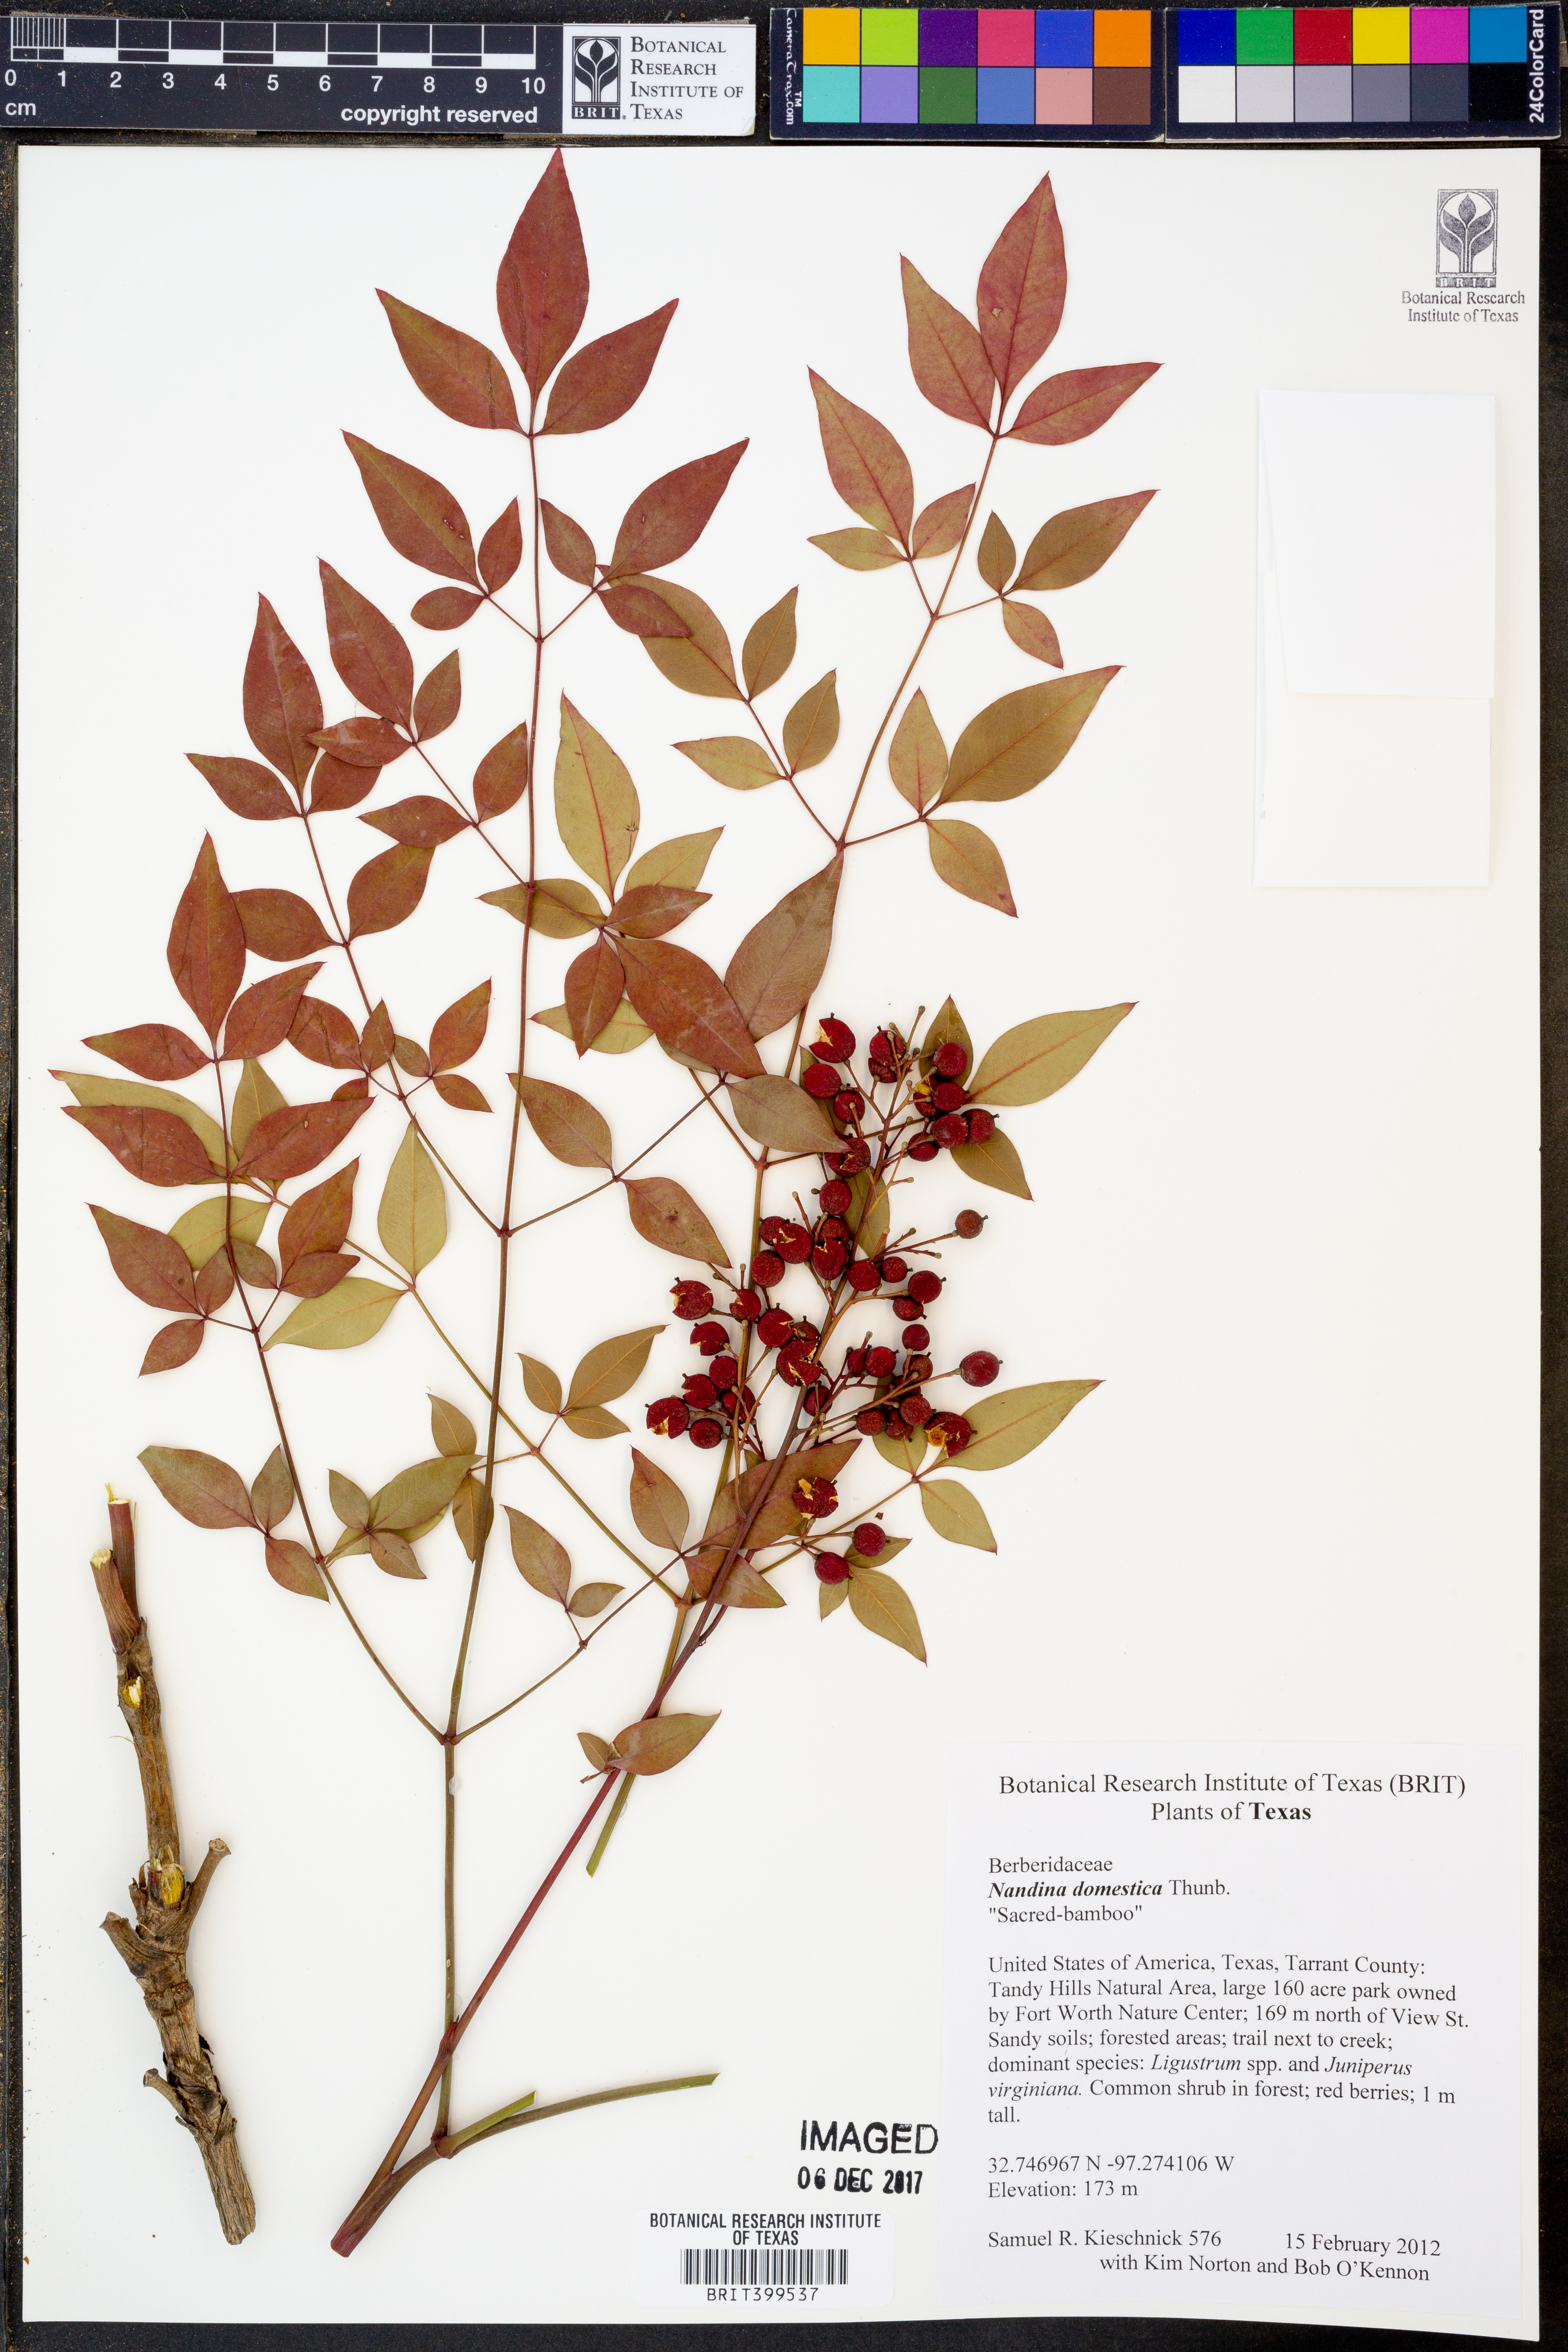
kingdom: Plantae
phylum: Tracheophyta
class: Magnoliopsida
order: Ranunculales
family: Berberidaceae
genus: Nandina
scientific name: Nandina domestica
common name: Sacred bamboo
